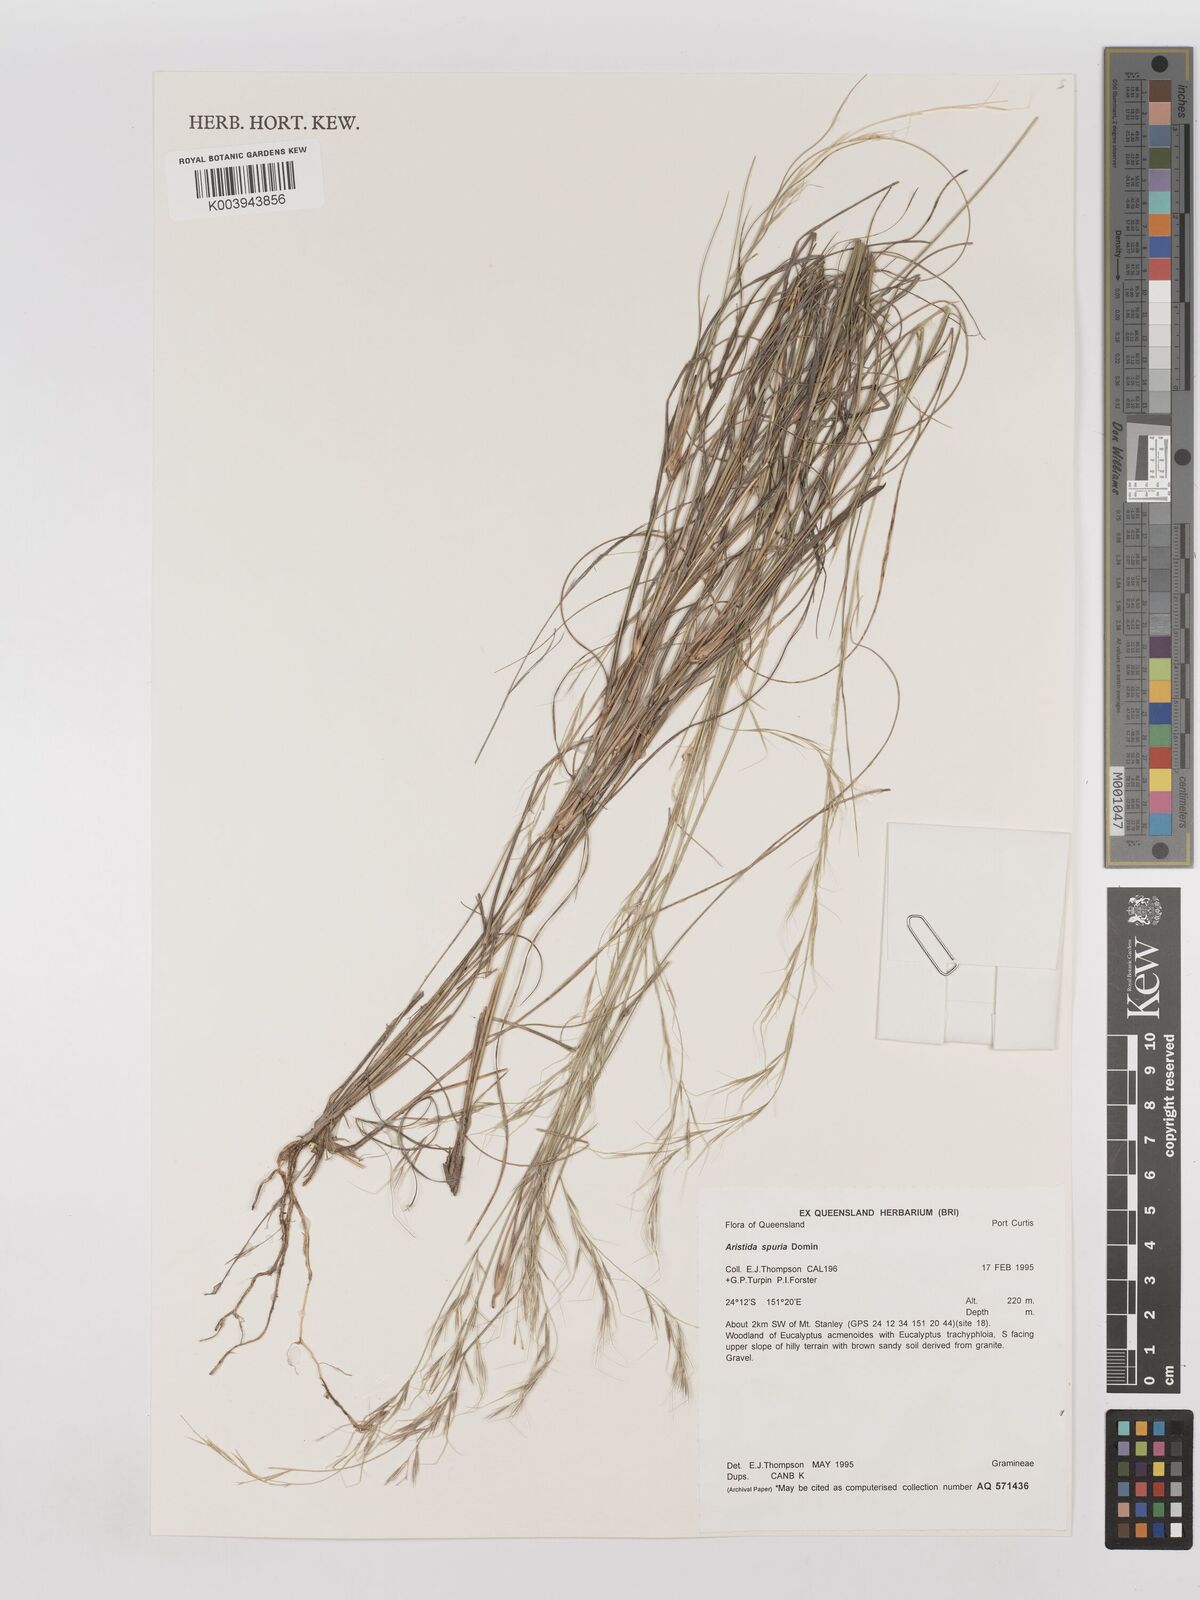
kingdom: Plantae
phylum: Tracheophyta
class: Liliopsida
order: Poales
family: Poaceae
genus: Aristida
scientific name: Aristida spuria
